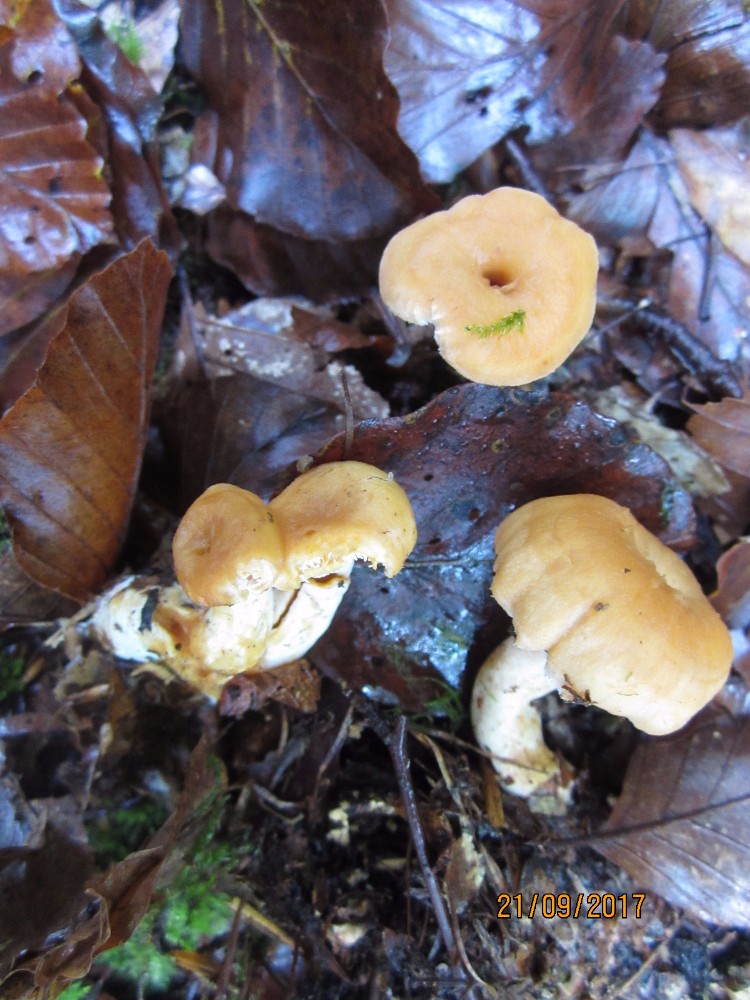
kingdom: Fungi
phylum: Basidiomycota
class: Agaricomycetes
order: Cantharellales
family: Hydnaceae
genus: Hydnum
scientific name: Hydnum umbilicatum
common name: navle-pigsvamp
